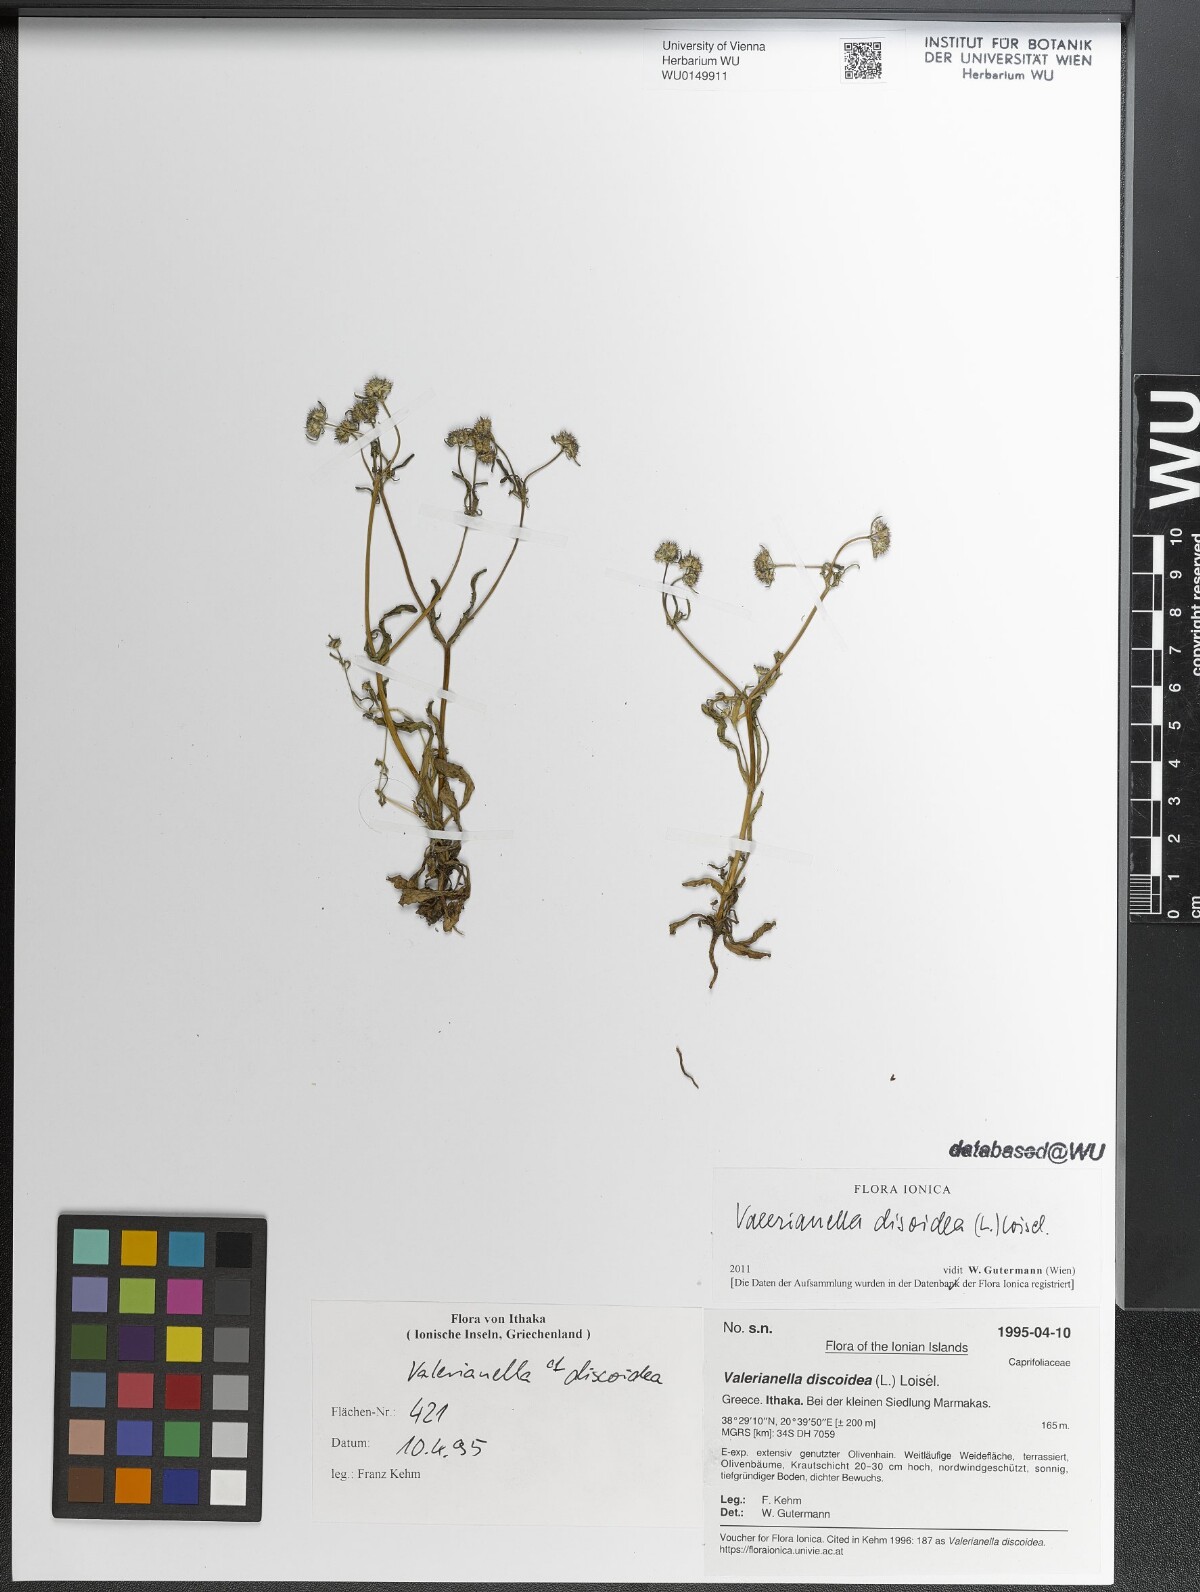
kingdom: Plantae
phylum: Tracheophyta
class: Magnoliopsida
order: Dipsacales
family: Caprifoliaceae
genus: Valerianella
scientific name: Valerianella discoidea
